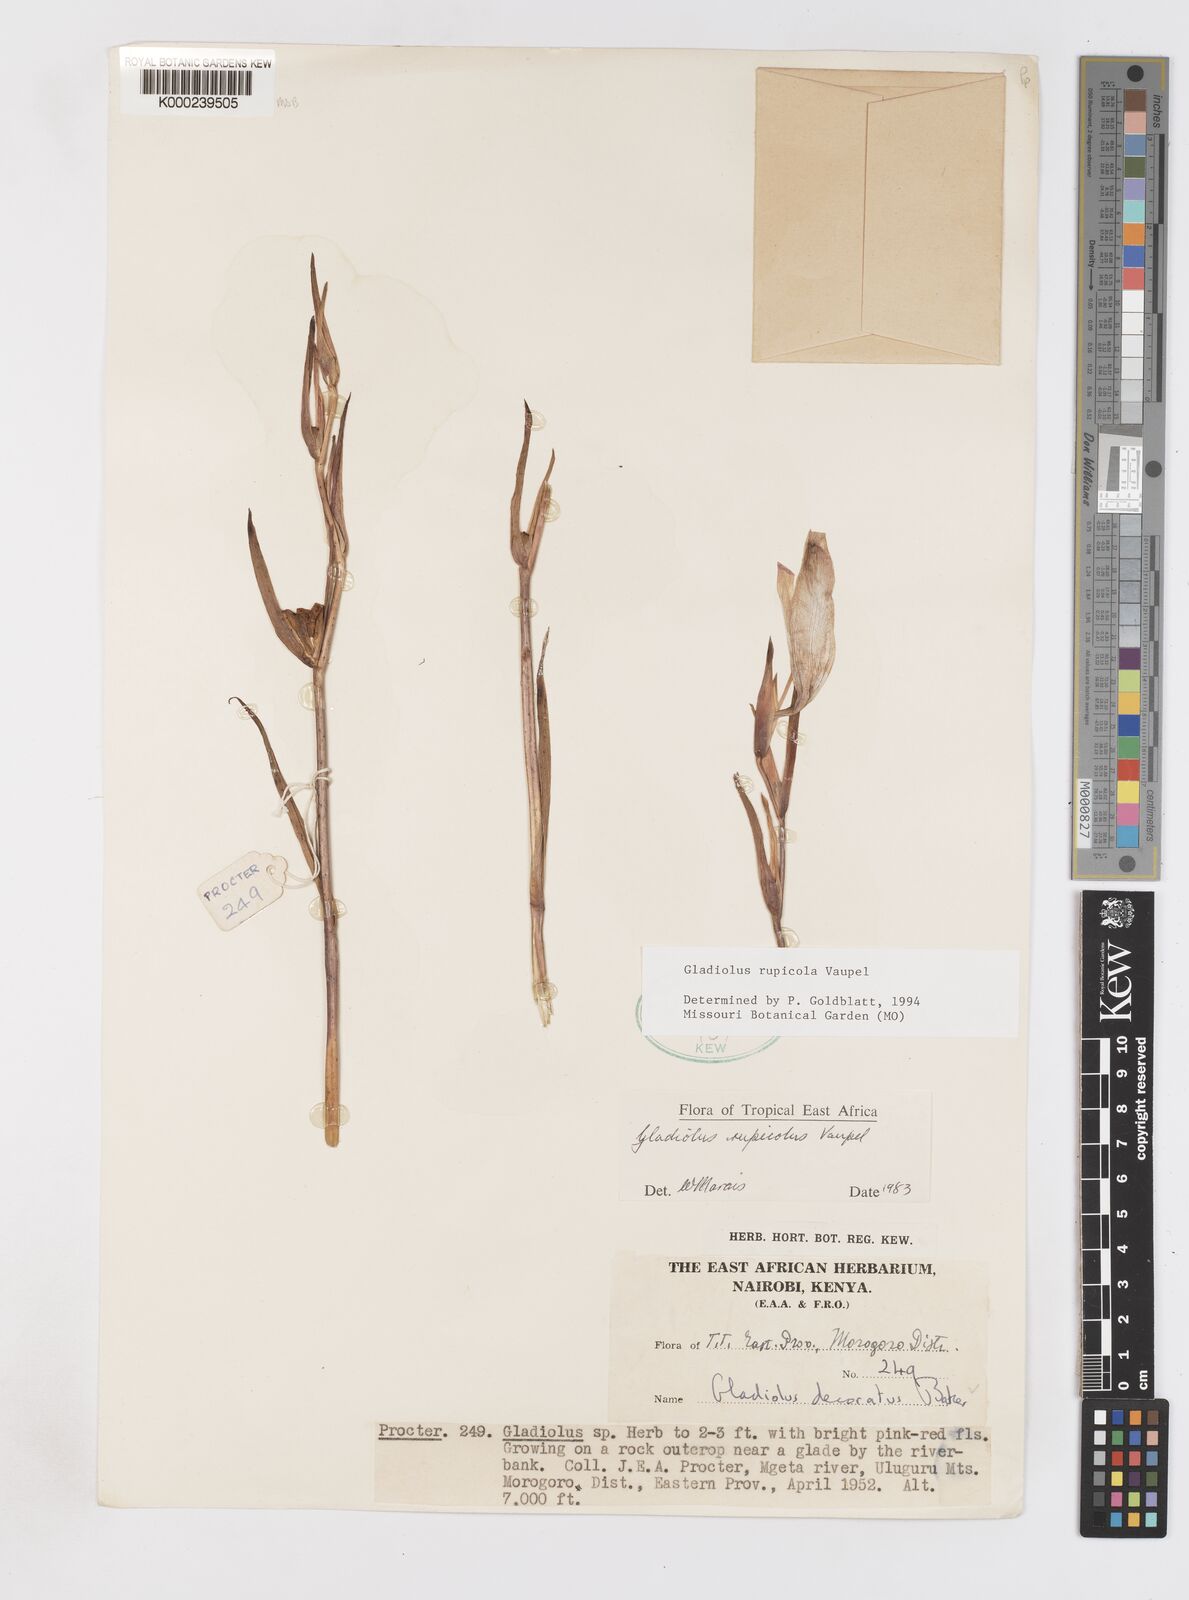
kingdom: Plantae
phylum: Tracheophyta
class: Liliopsida
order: Asparagales
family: Iridaceae
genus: Gladiolus
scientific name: Gladiolus rupicola
